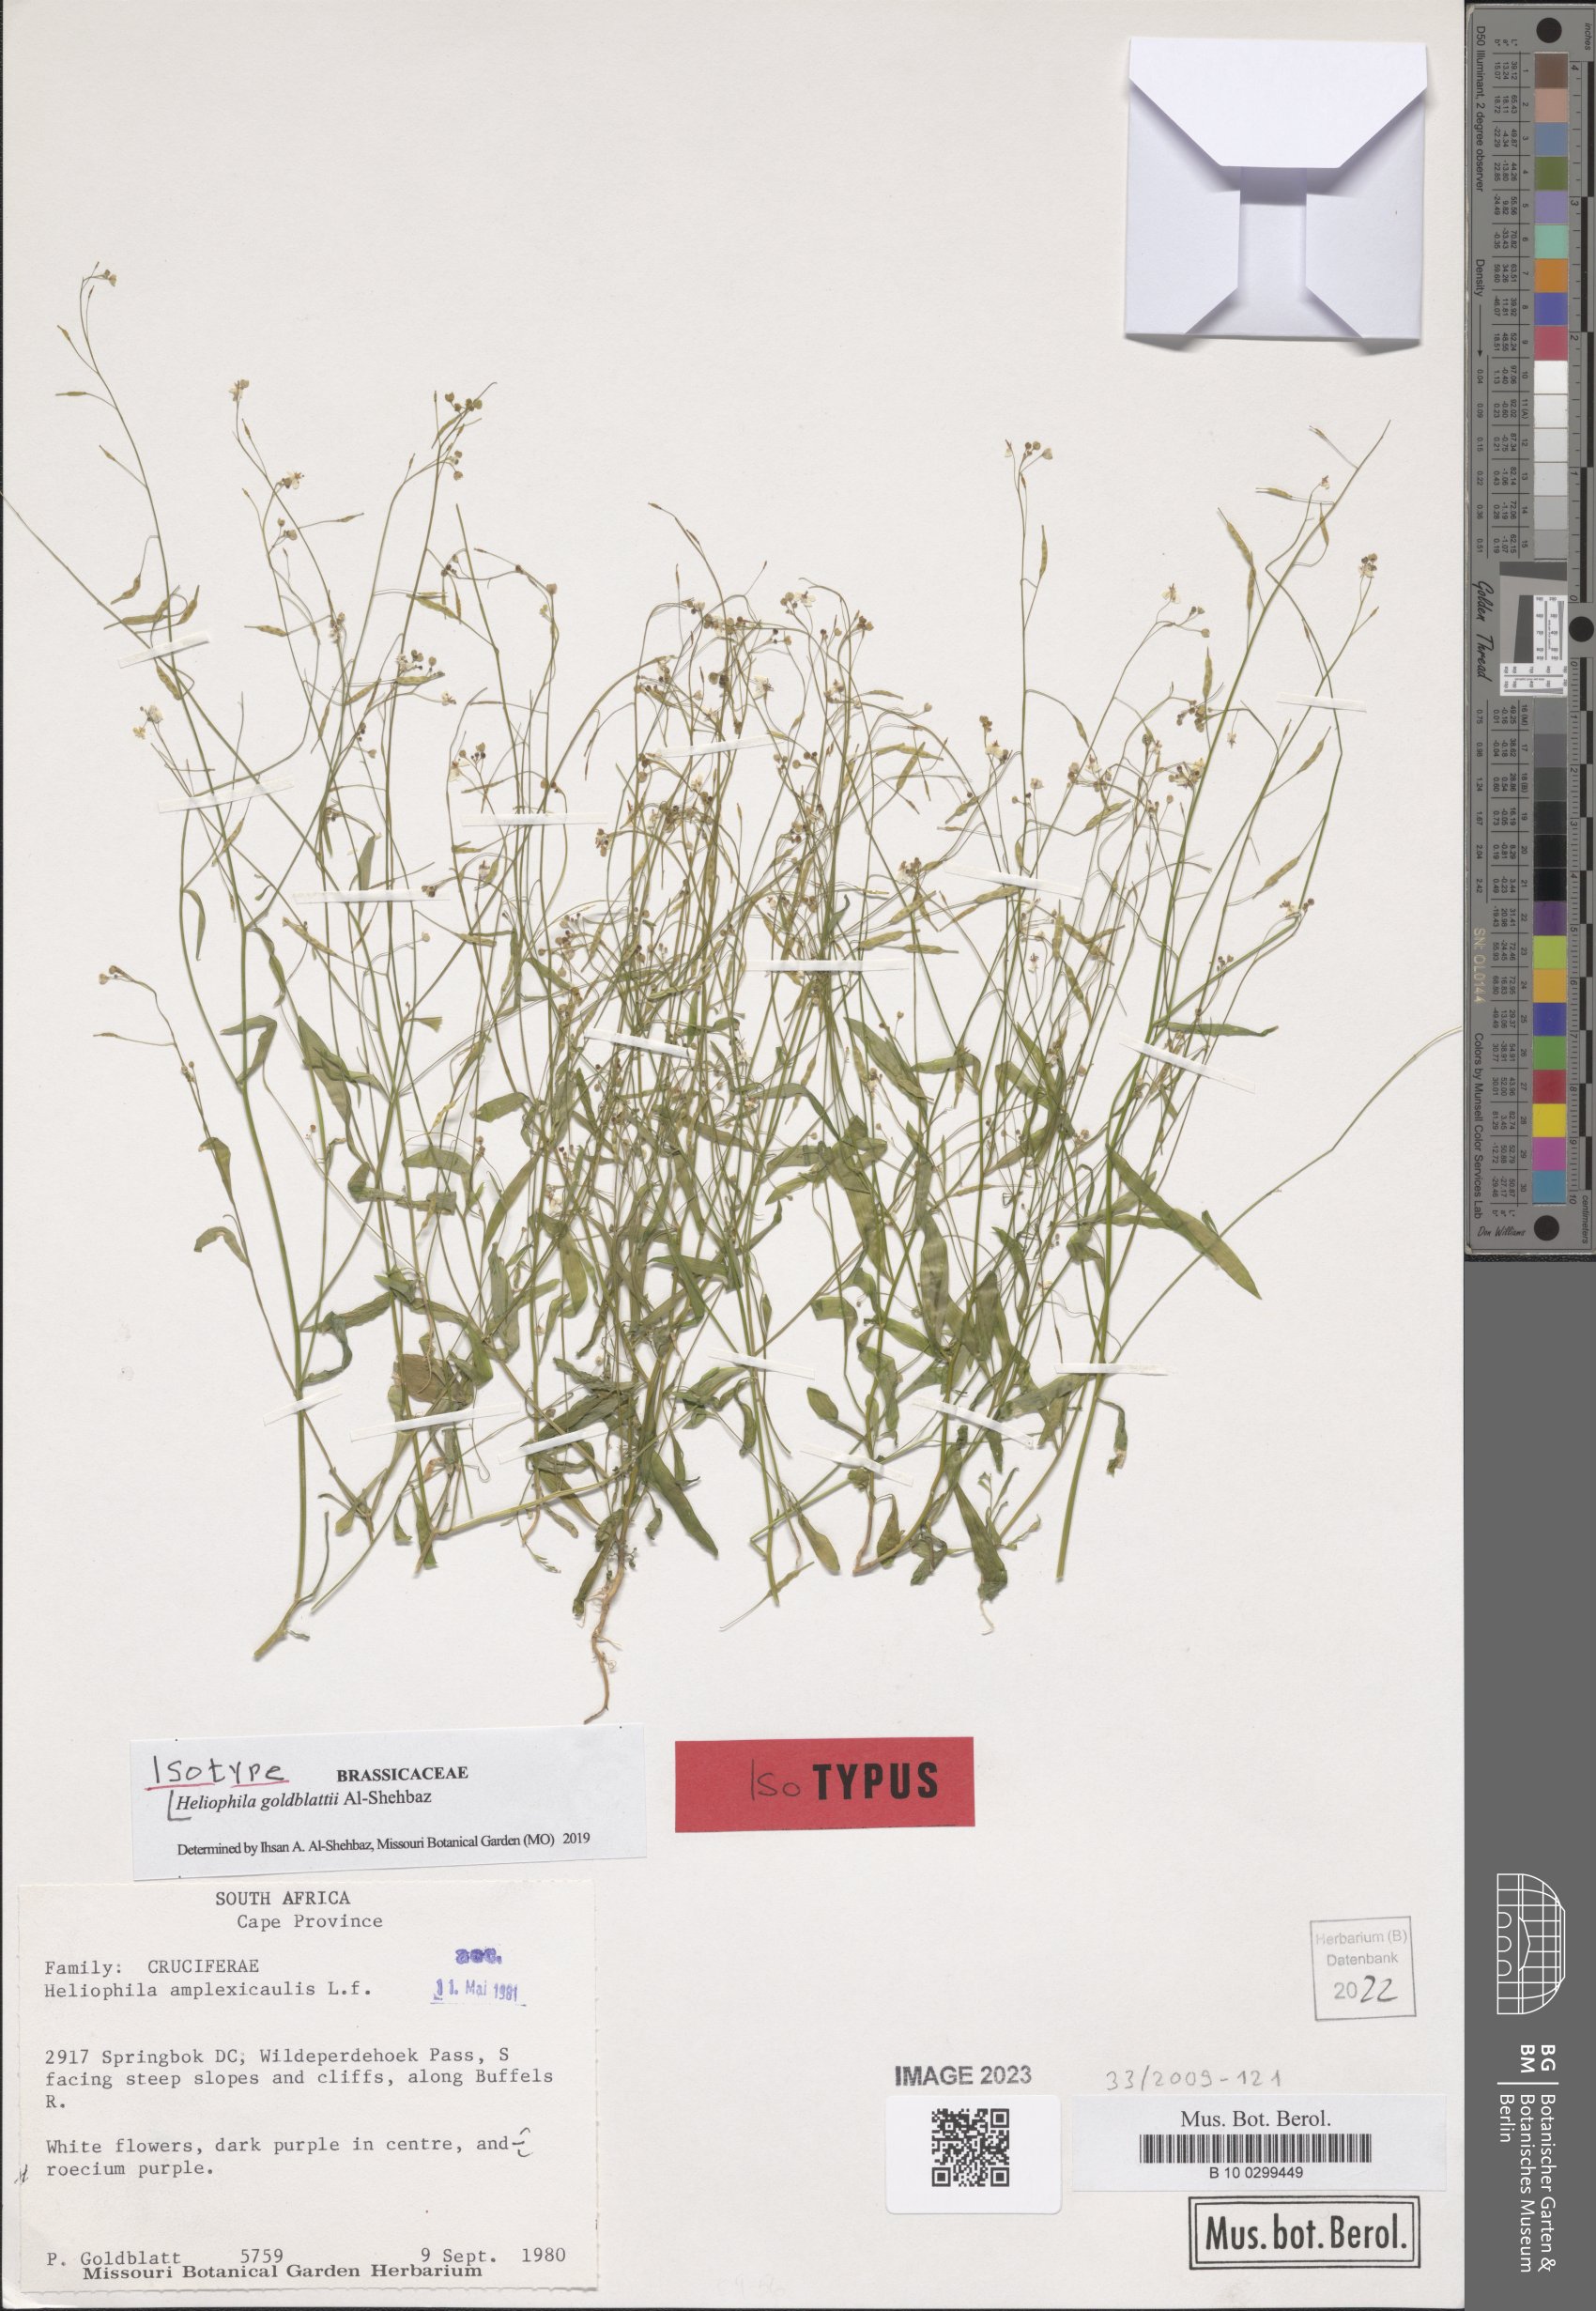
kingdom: Plantae
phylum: Tracheophyta
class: Magnoliopsida
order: Brassicales
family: Brassicaceae
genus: Heliophila
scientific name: Heliophila goldblattii
